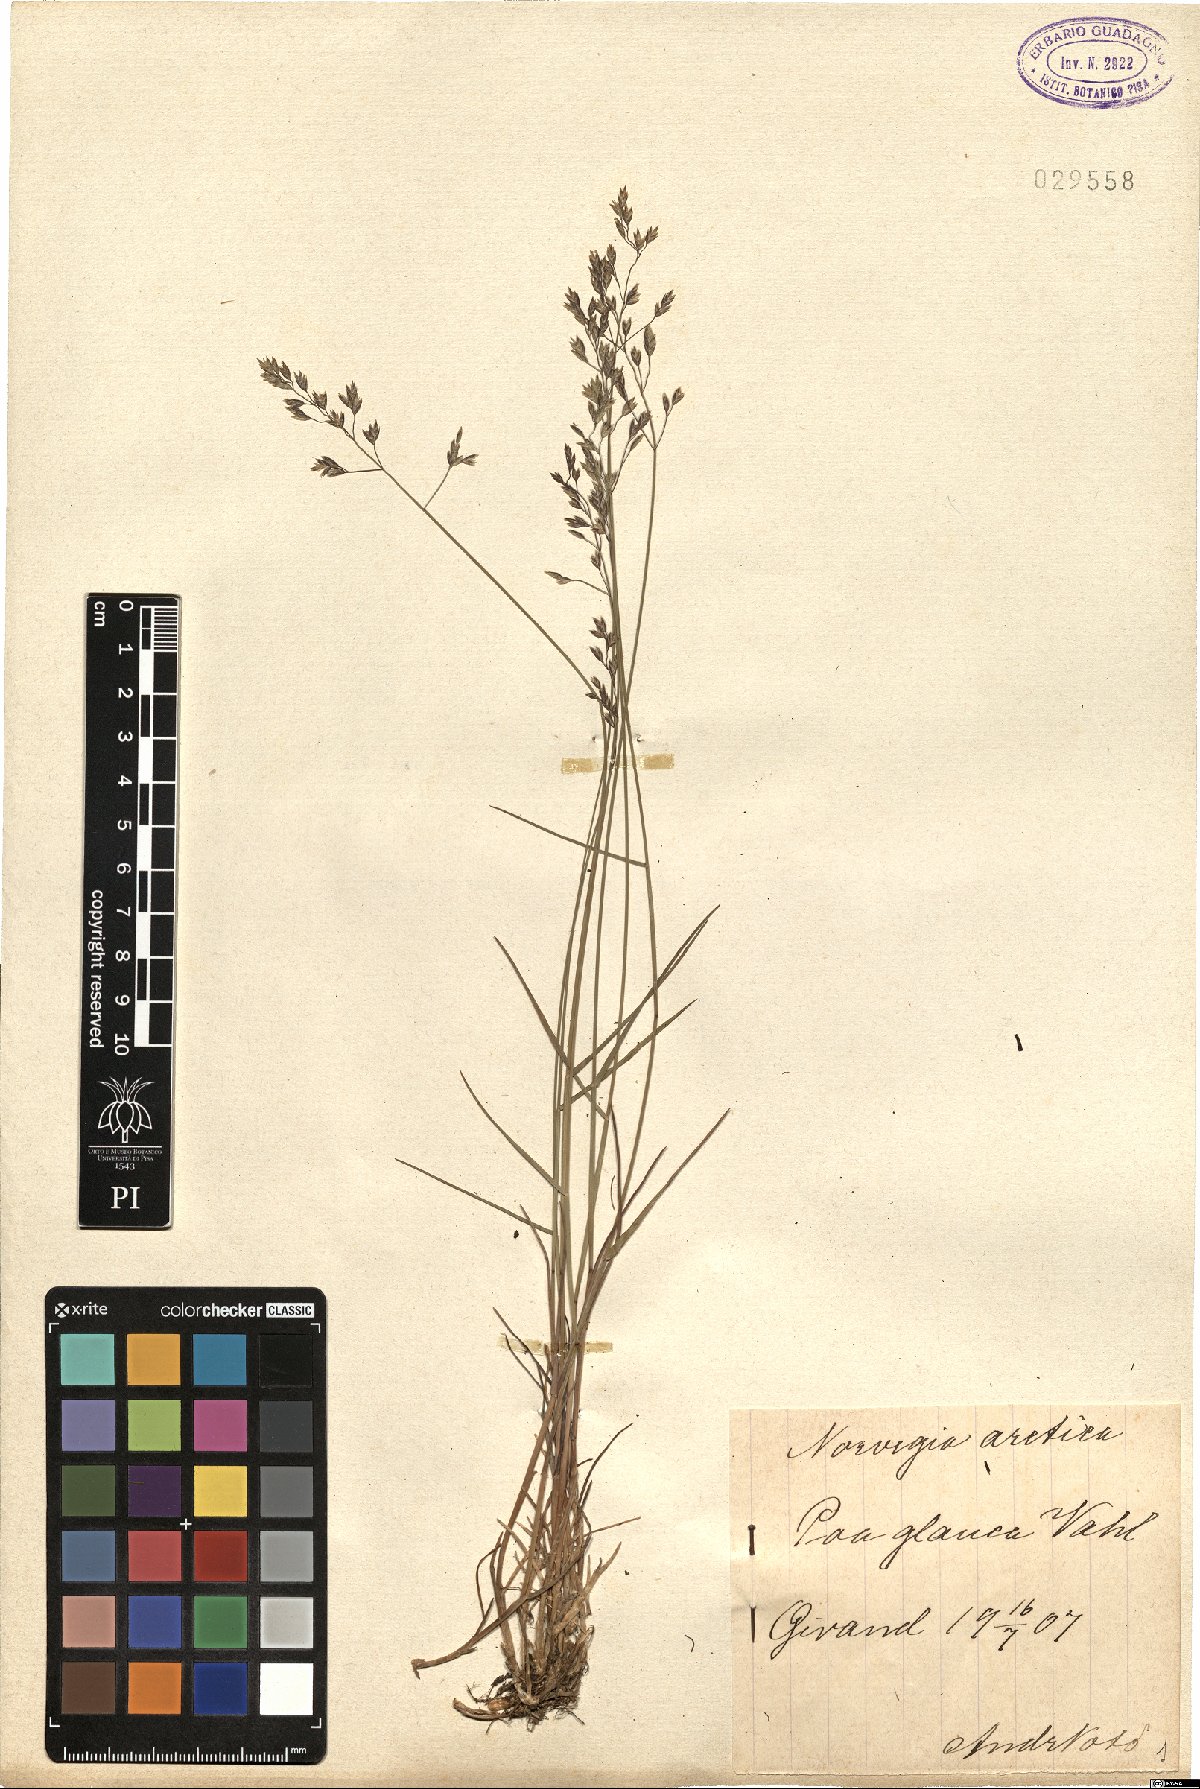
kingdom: Plantae
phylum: Tracheophyta
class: Liliopsida
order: Poales
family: Poaceae
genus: Poa
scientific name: Poa glauca
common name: Glaucous bluegrass
